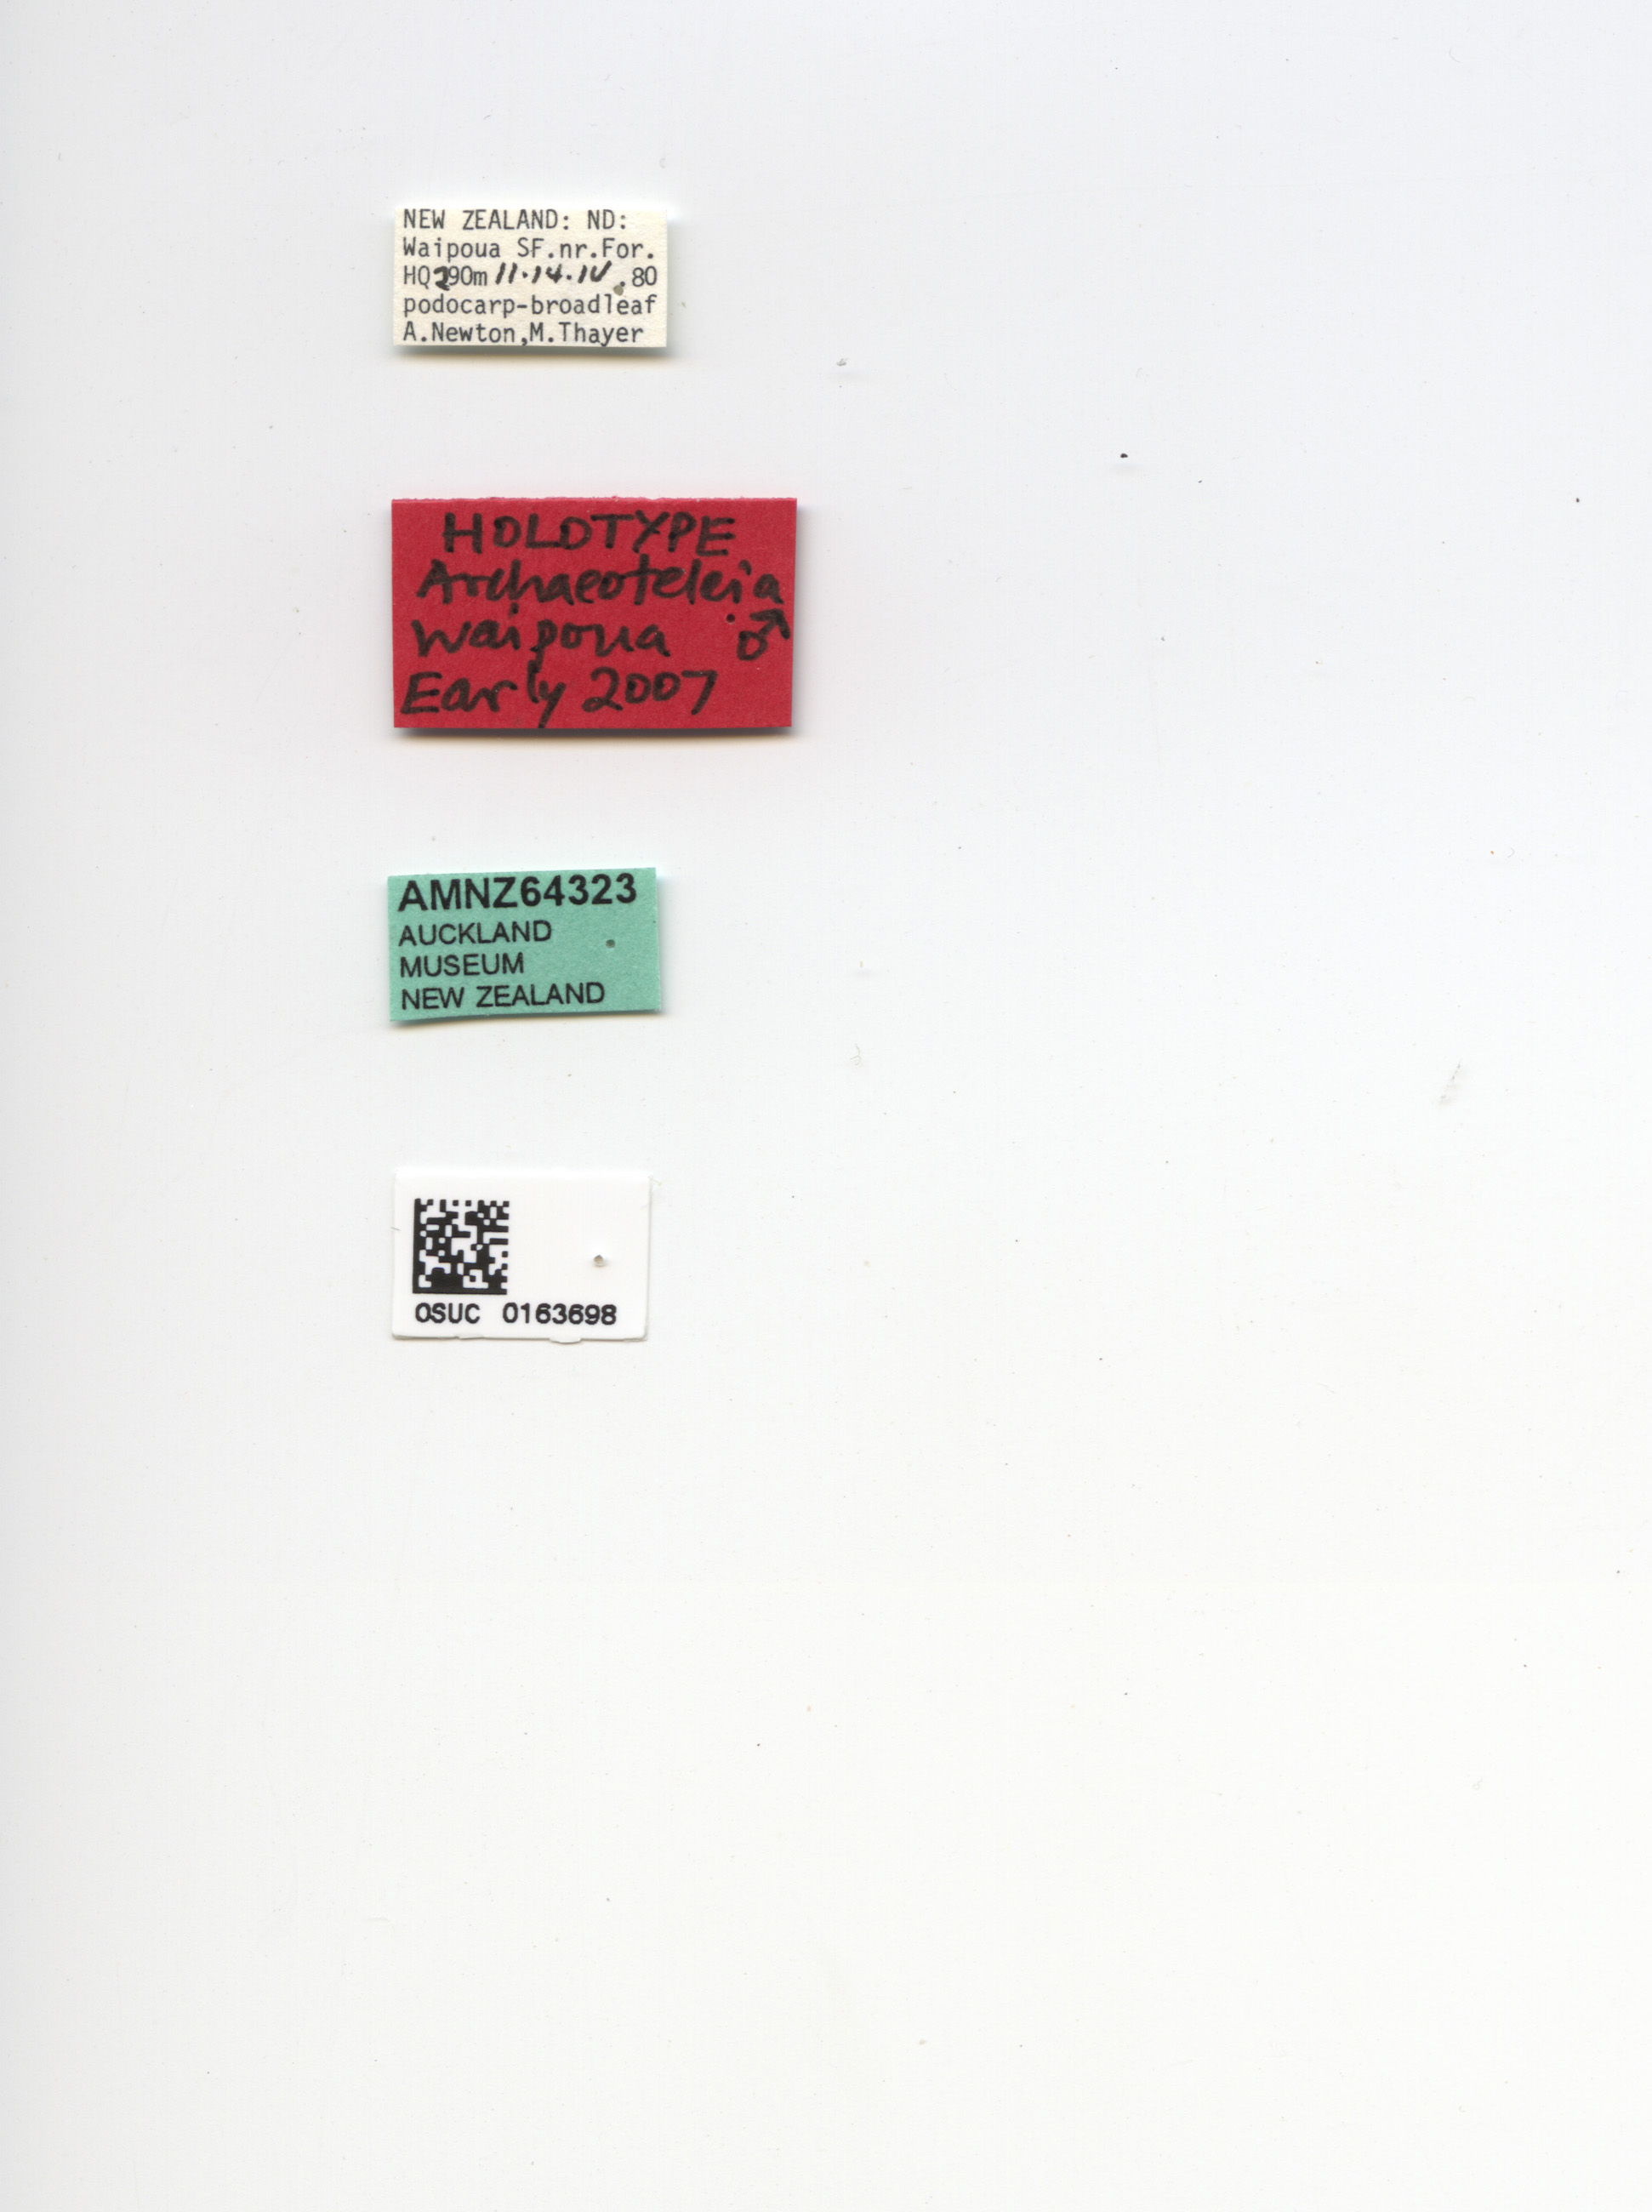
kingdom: Animalia
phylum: Arthropoda
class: Insecta
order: Hymenoptera
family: Scelionidae
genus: Archaeoteleia
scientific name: Archaeoteleia waipoua
